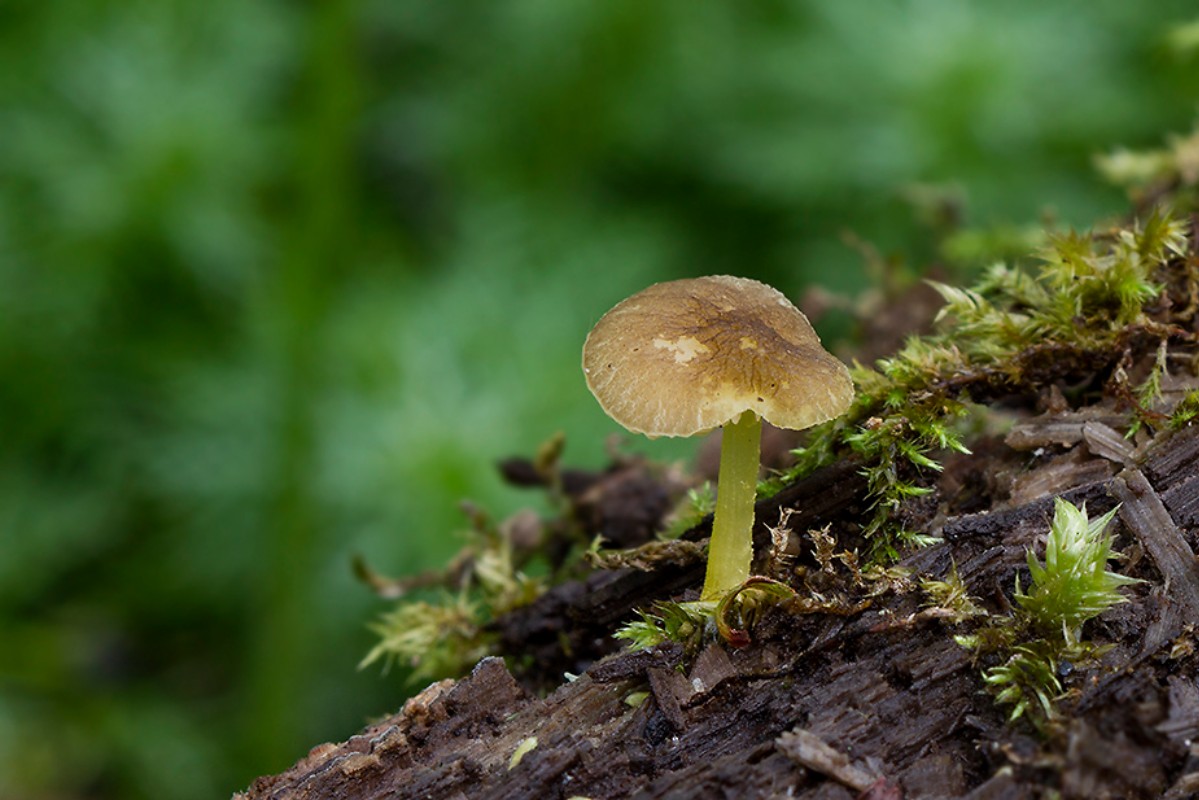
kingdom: Fungi
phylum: Basidiomycota
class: Agaricomycetes
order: Agaricales
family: Pluteaceae
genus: Pluteus
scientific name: Pluteus romellii
